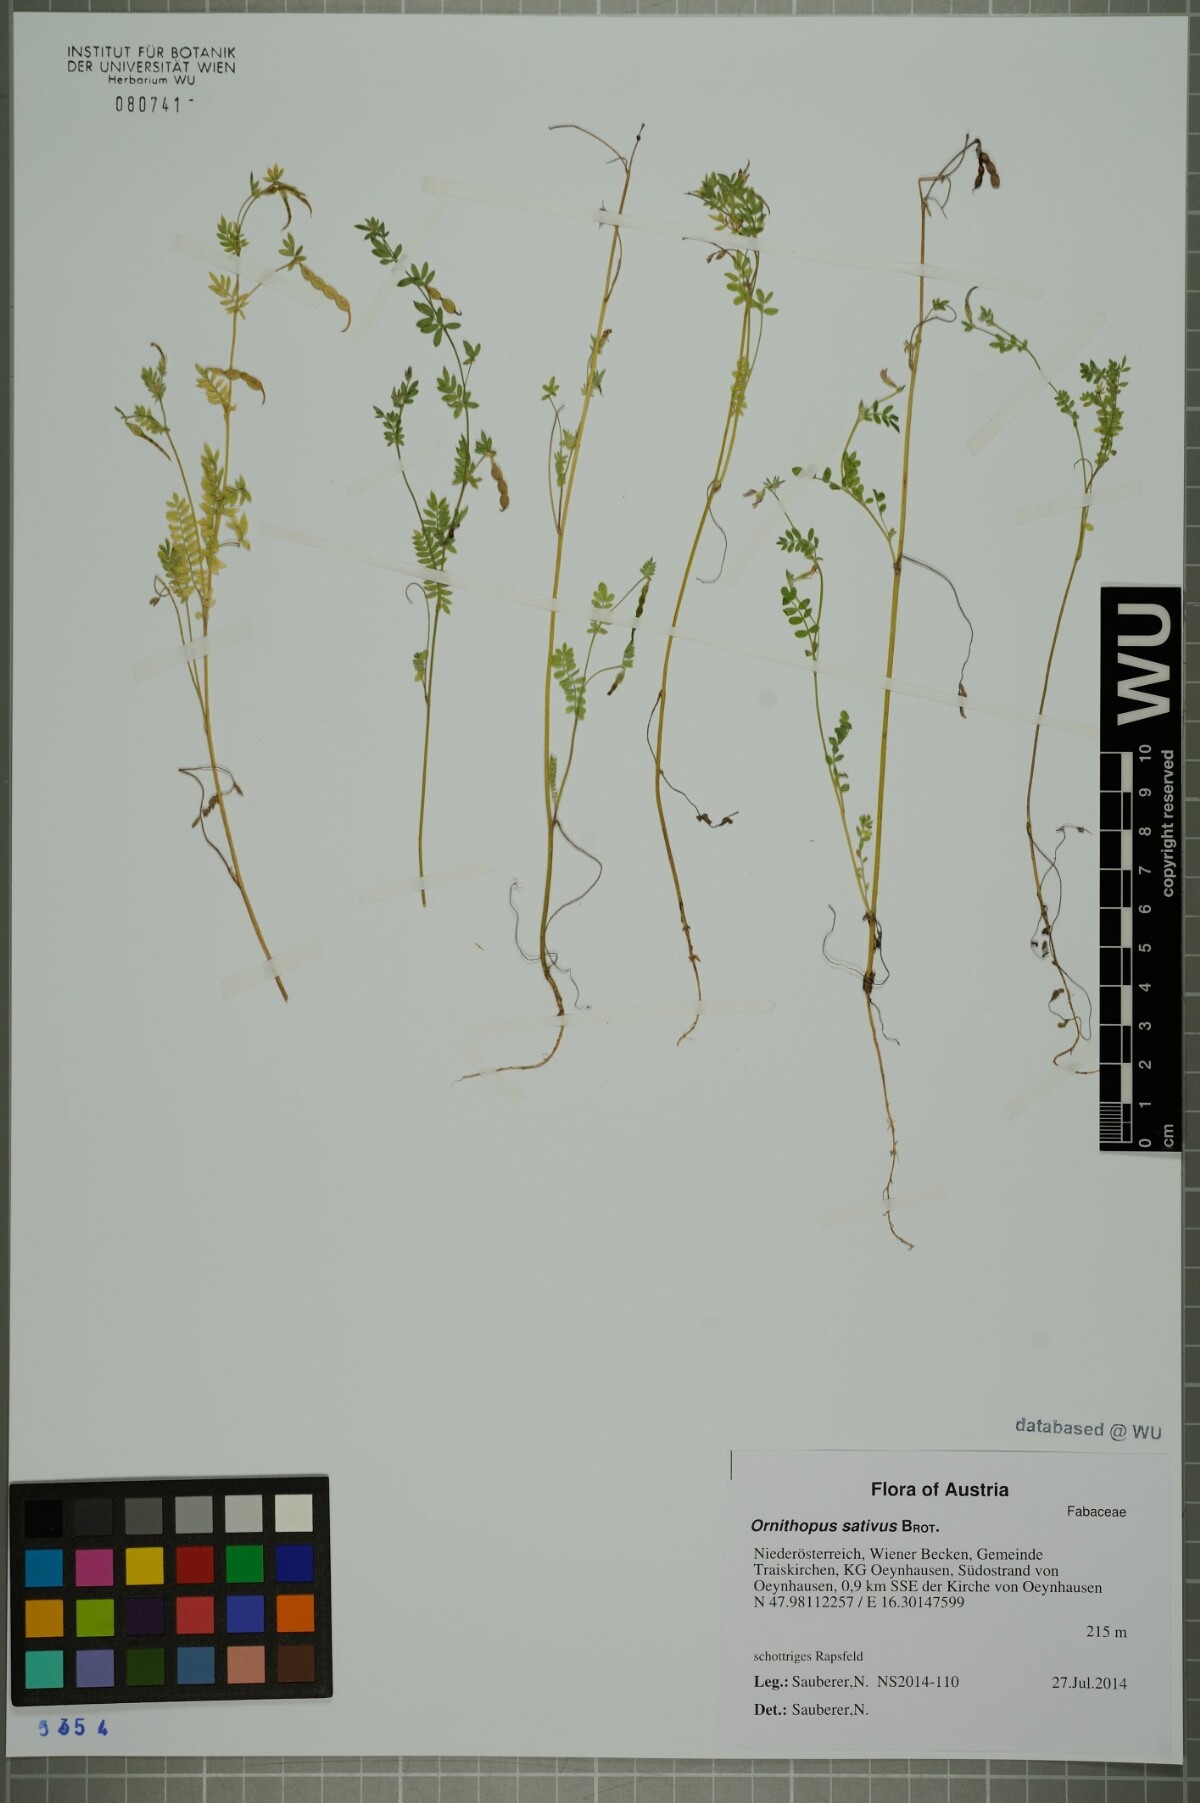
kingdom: Plantae
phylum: Tracheophyta
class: Magnoliopsida
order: Fabales
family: Fabaceae
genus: Ornithopus
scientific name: Ornithopus sativus
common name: Serradella
